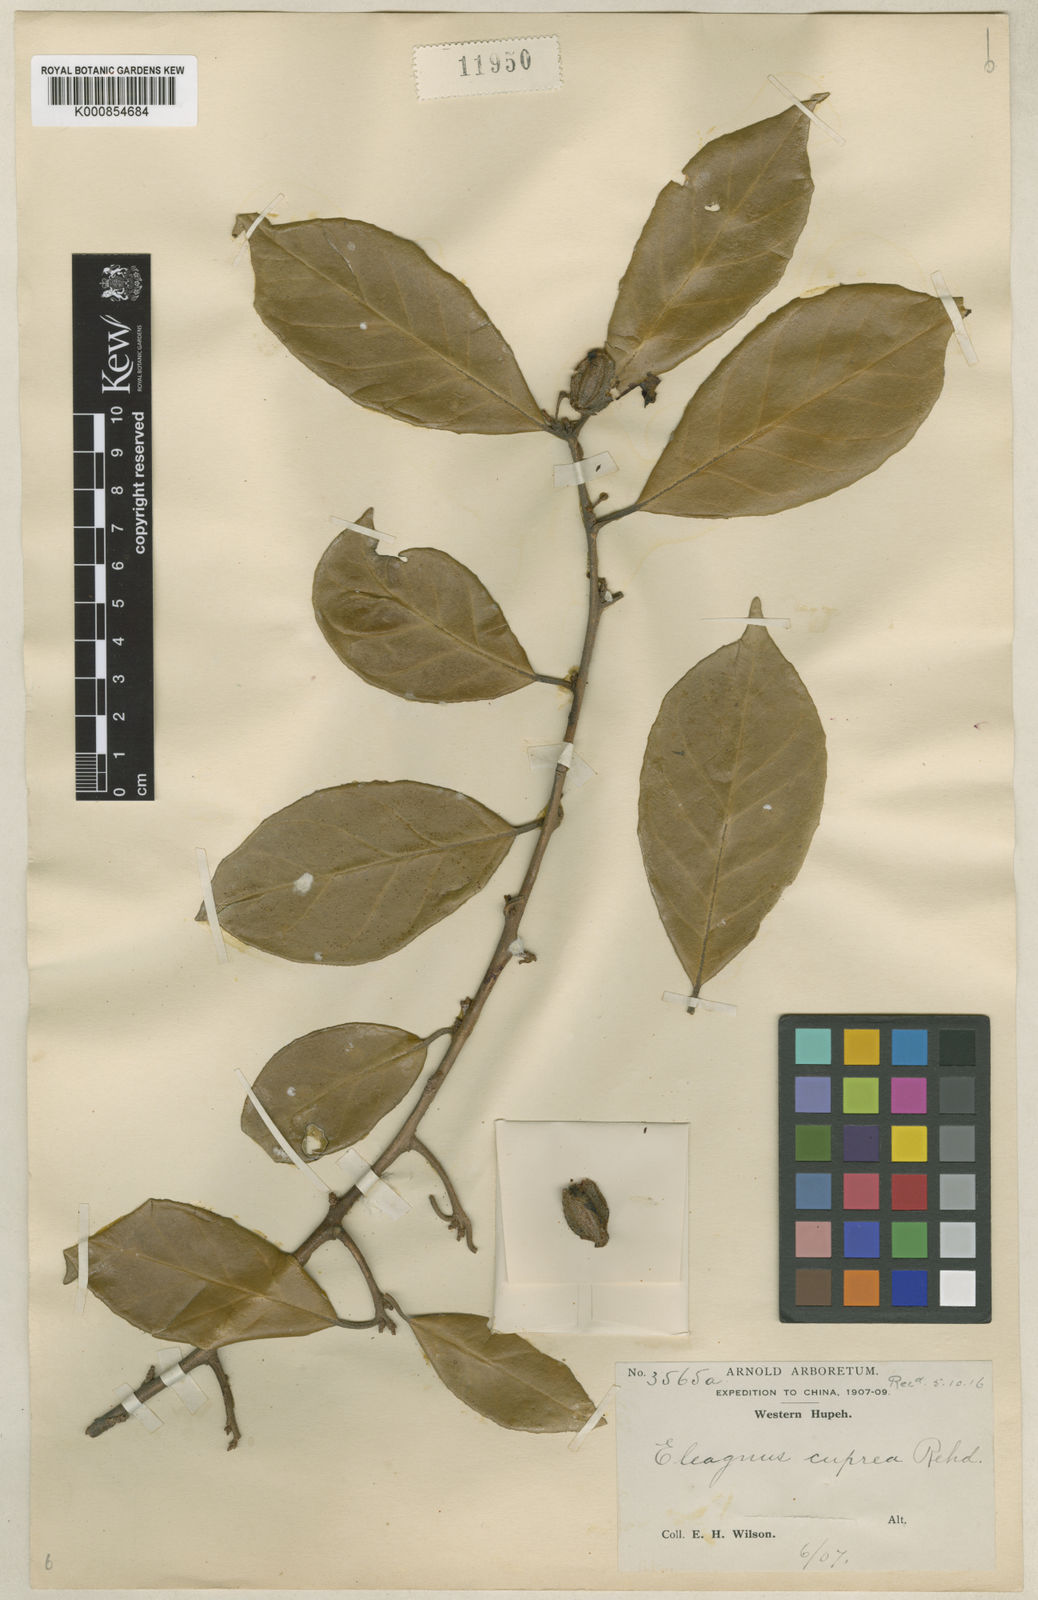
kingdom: Plantae
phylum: Tracheophyta
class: Magnoliopsida
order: Rosales
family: Elaeagnaceae
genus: Elaeagnus
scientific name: Elaeagnus difficilis
